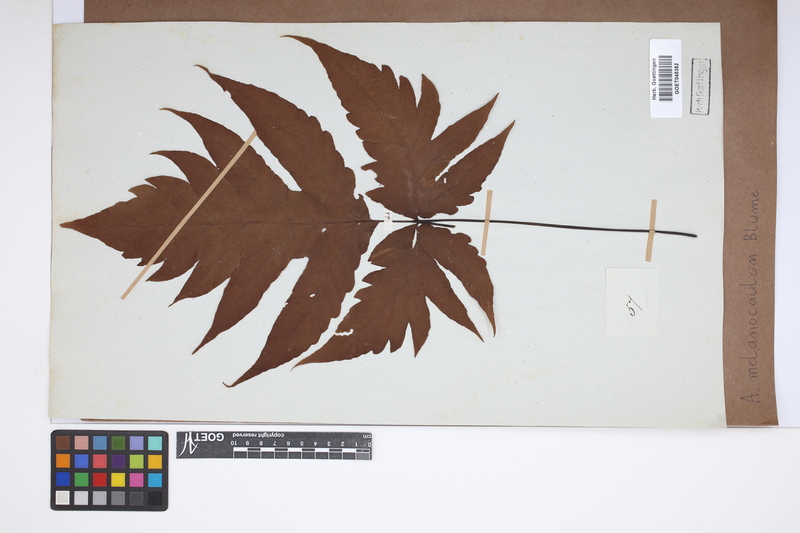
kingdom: Plantae
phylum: Tracheophyta
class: Polypodiopsida
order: Polypodiales
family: Tectariaceae
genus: Tectaria
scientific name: Tectaria melanocaulos
